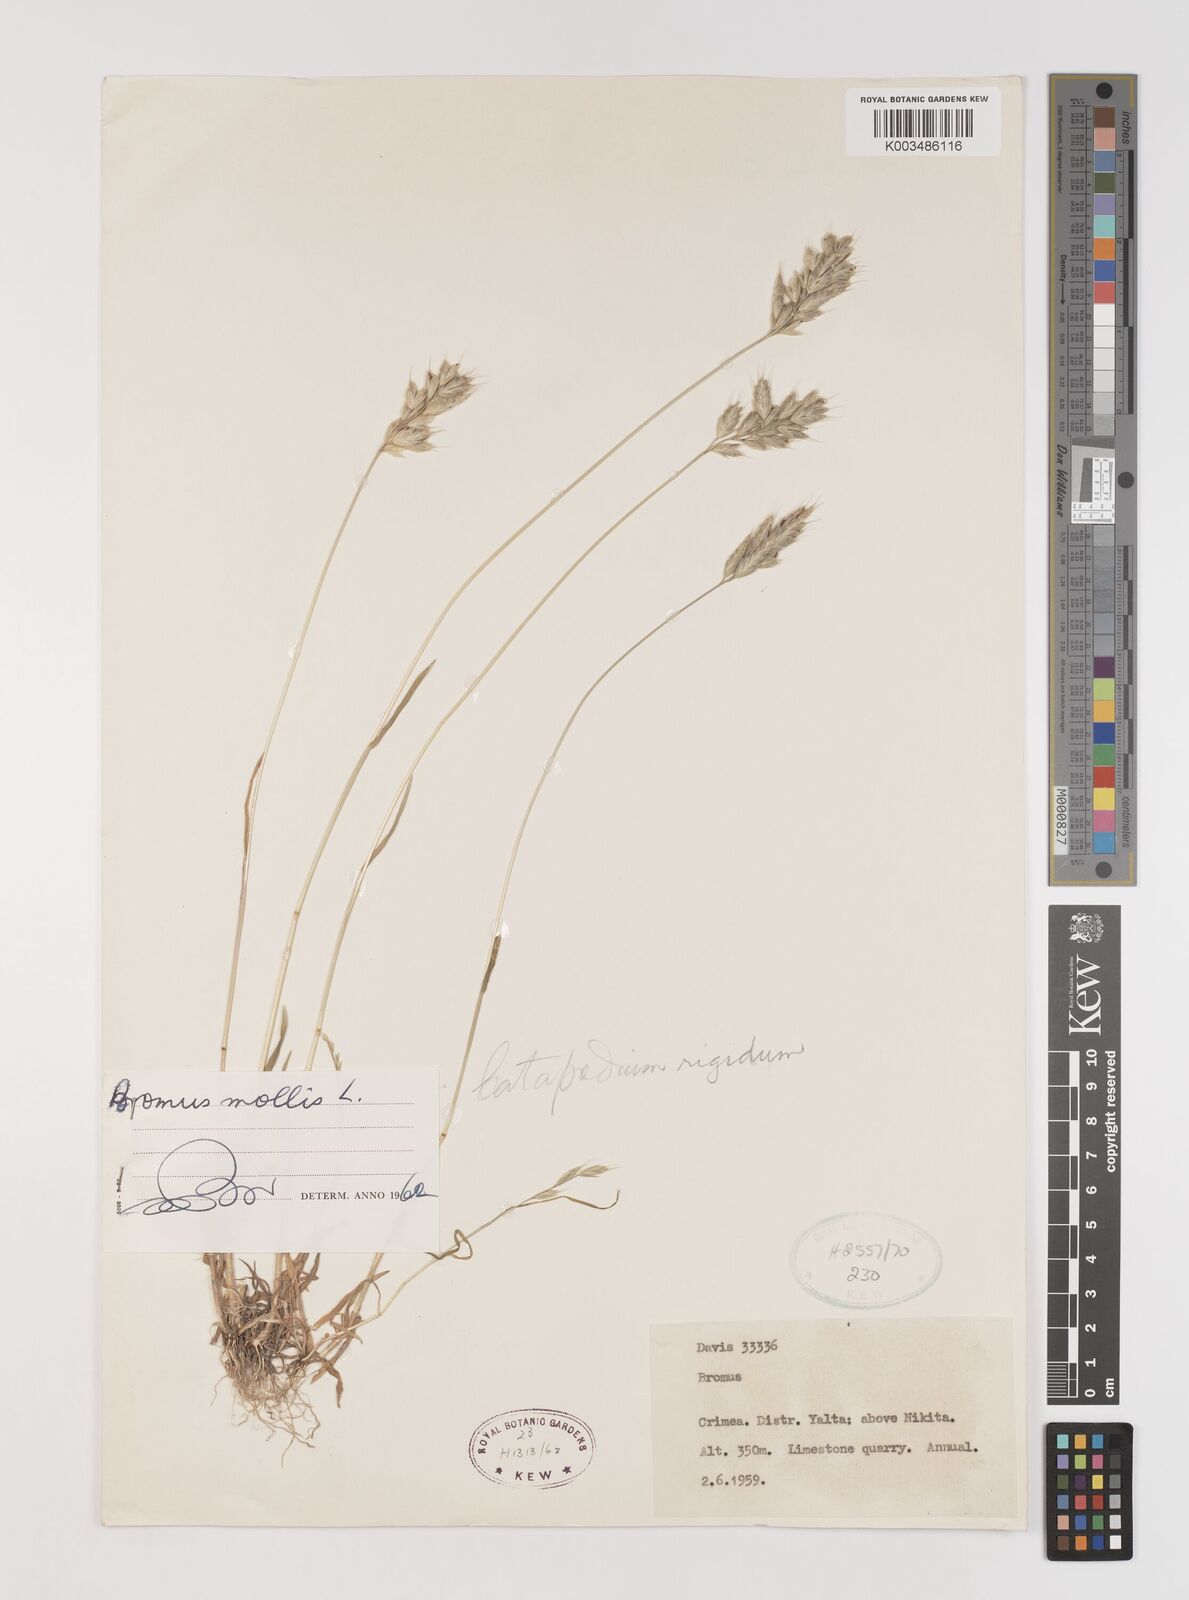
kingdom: Plantae
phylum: Tracheophyta
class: Liliopsida
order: Poales
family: Poaceae
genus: Bromus
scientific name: Bromus hordeaceus
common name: Soft brome
